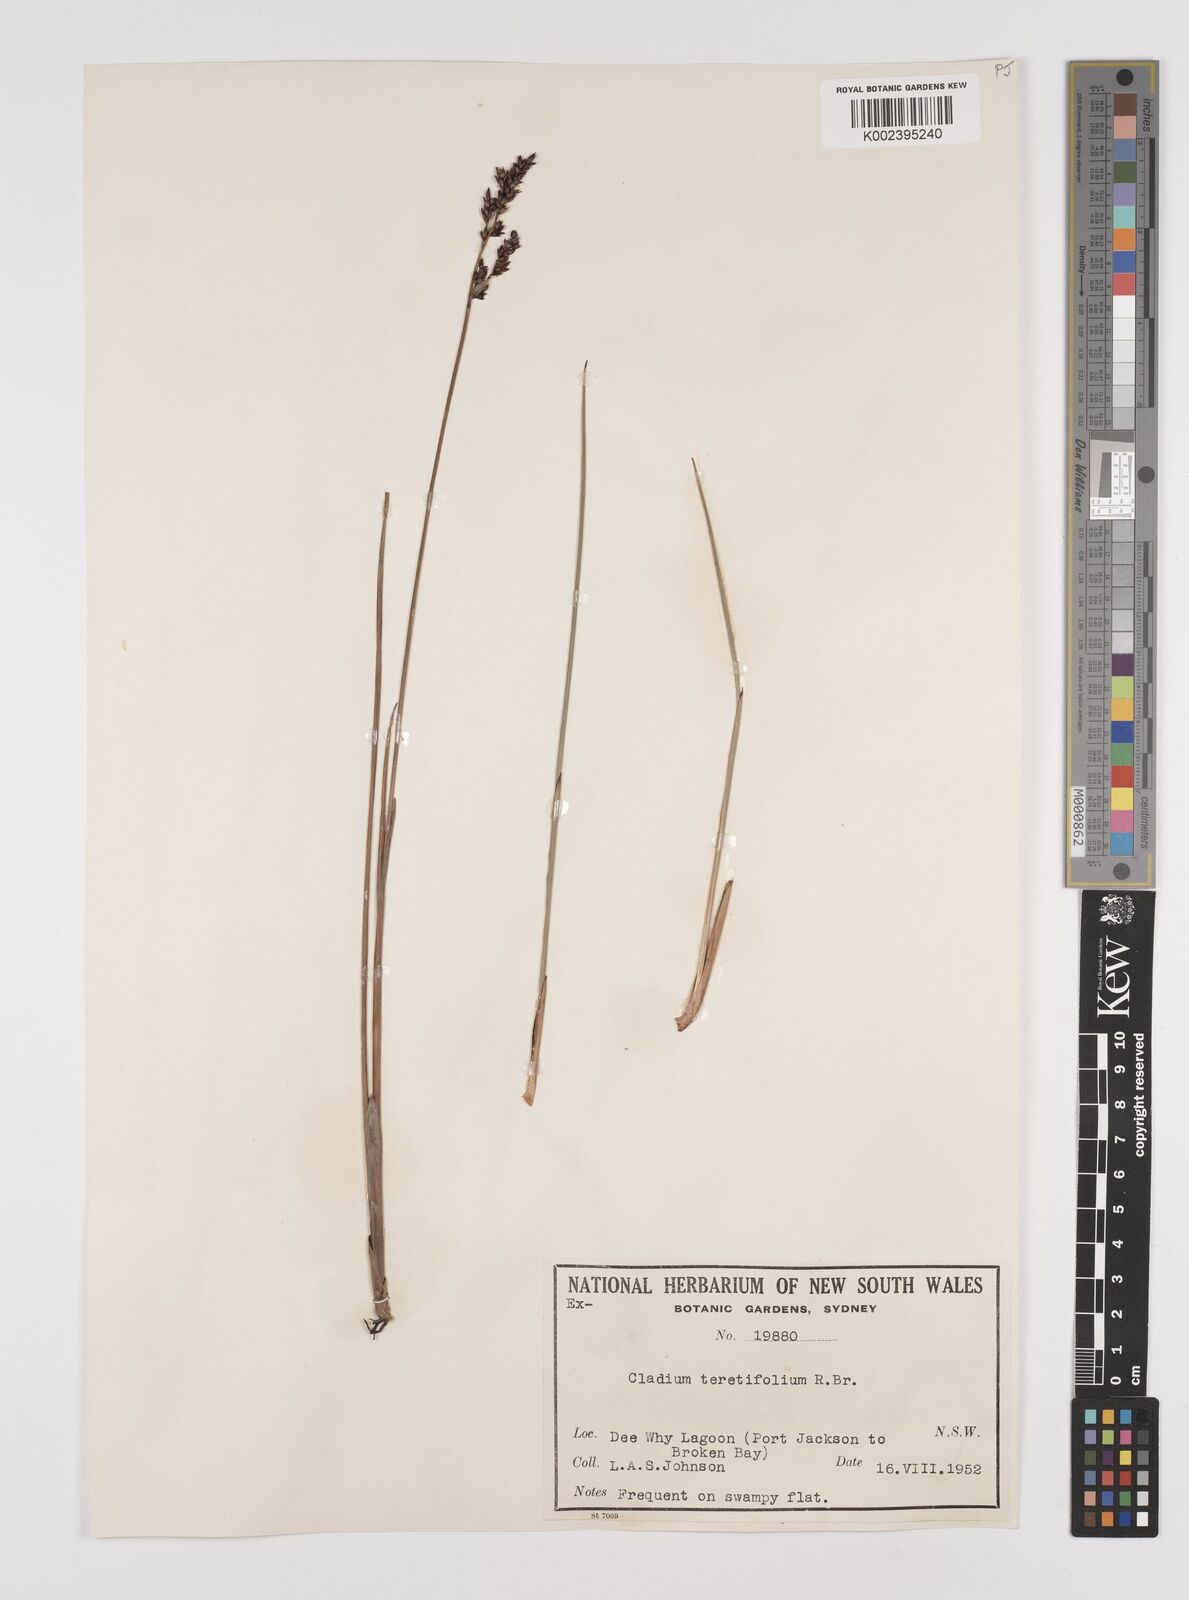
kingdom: Plantae
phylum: Tracheophyta
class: Liliopsida
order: Poales
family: Cyperaceae
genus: Machaerina
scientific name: Machaerina teretifolia
